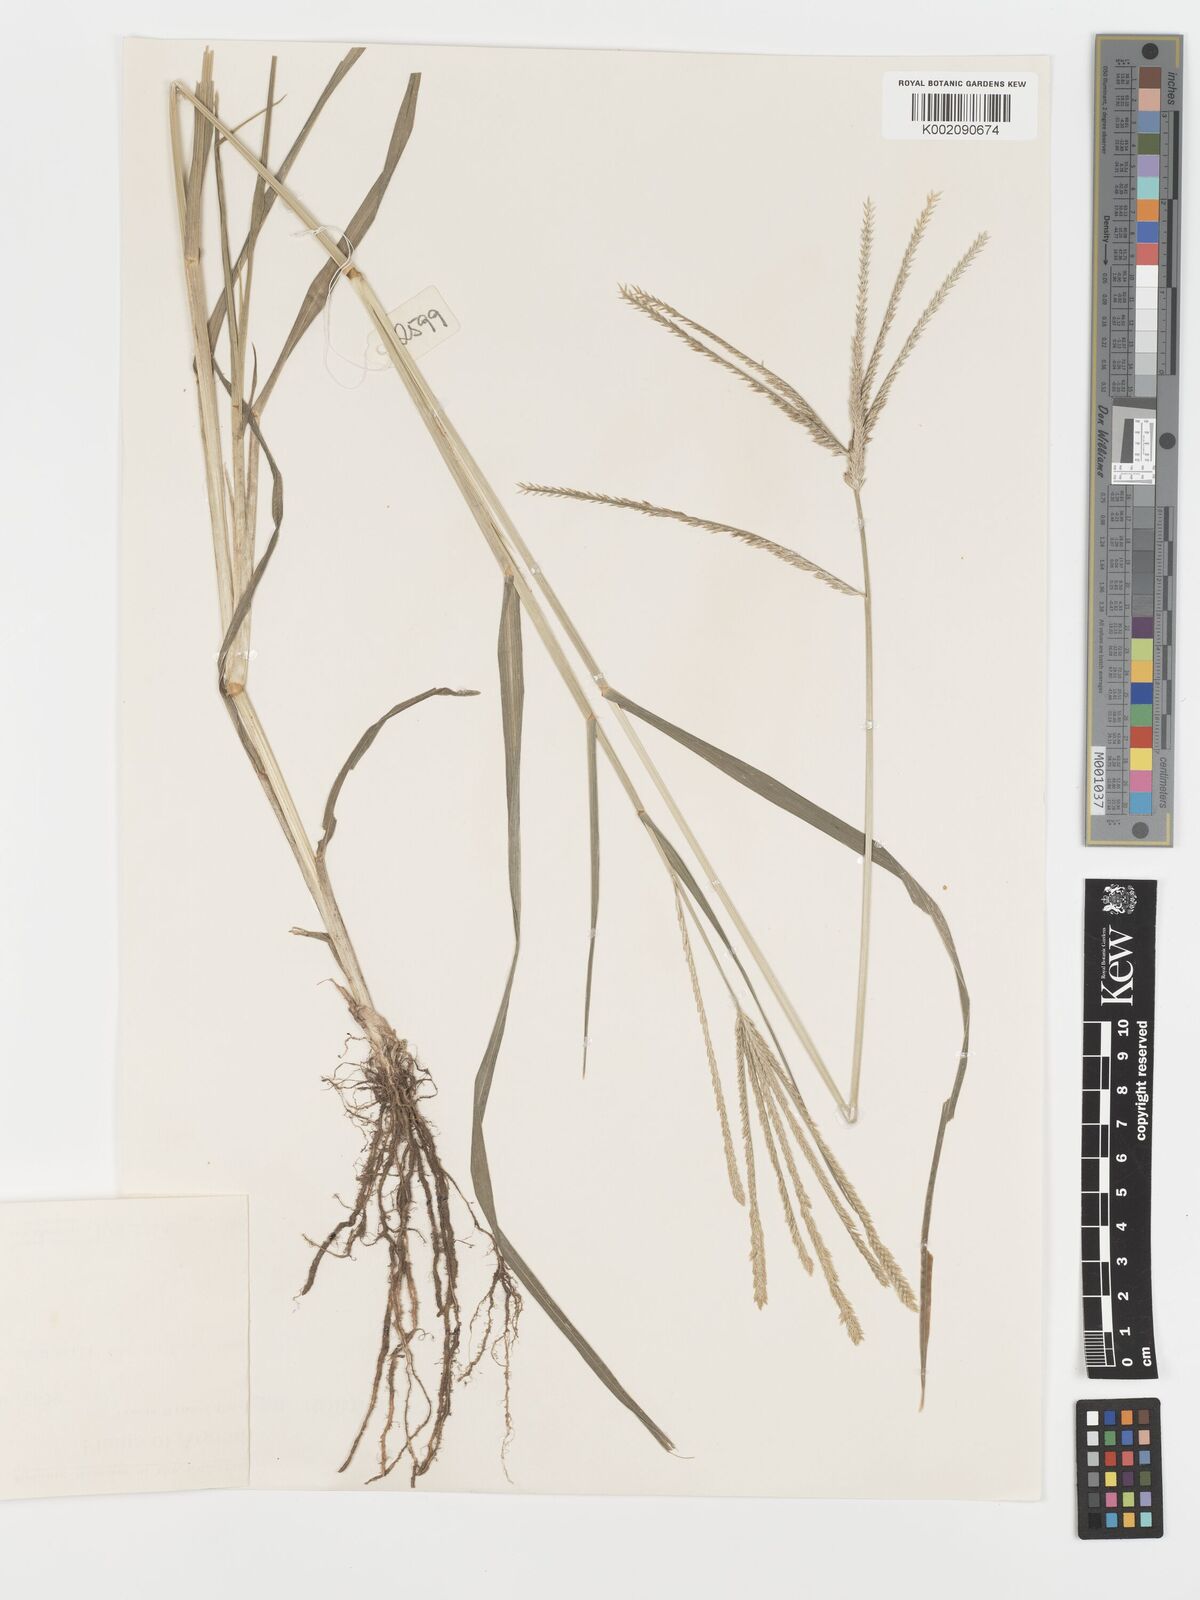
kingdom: Plantae
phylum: Tracheophyta
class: Liliopsida
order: Poales
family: Poaceae
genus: Eleusine
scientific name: Eleusine indica
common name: Yard-grass
